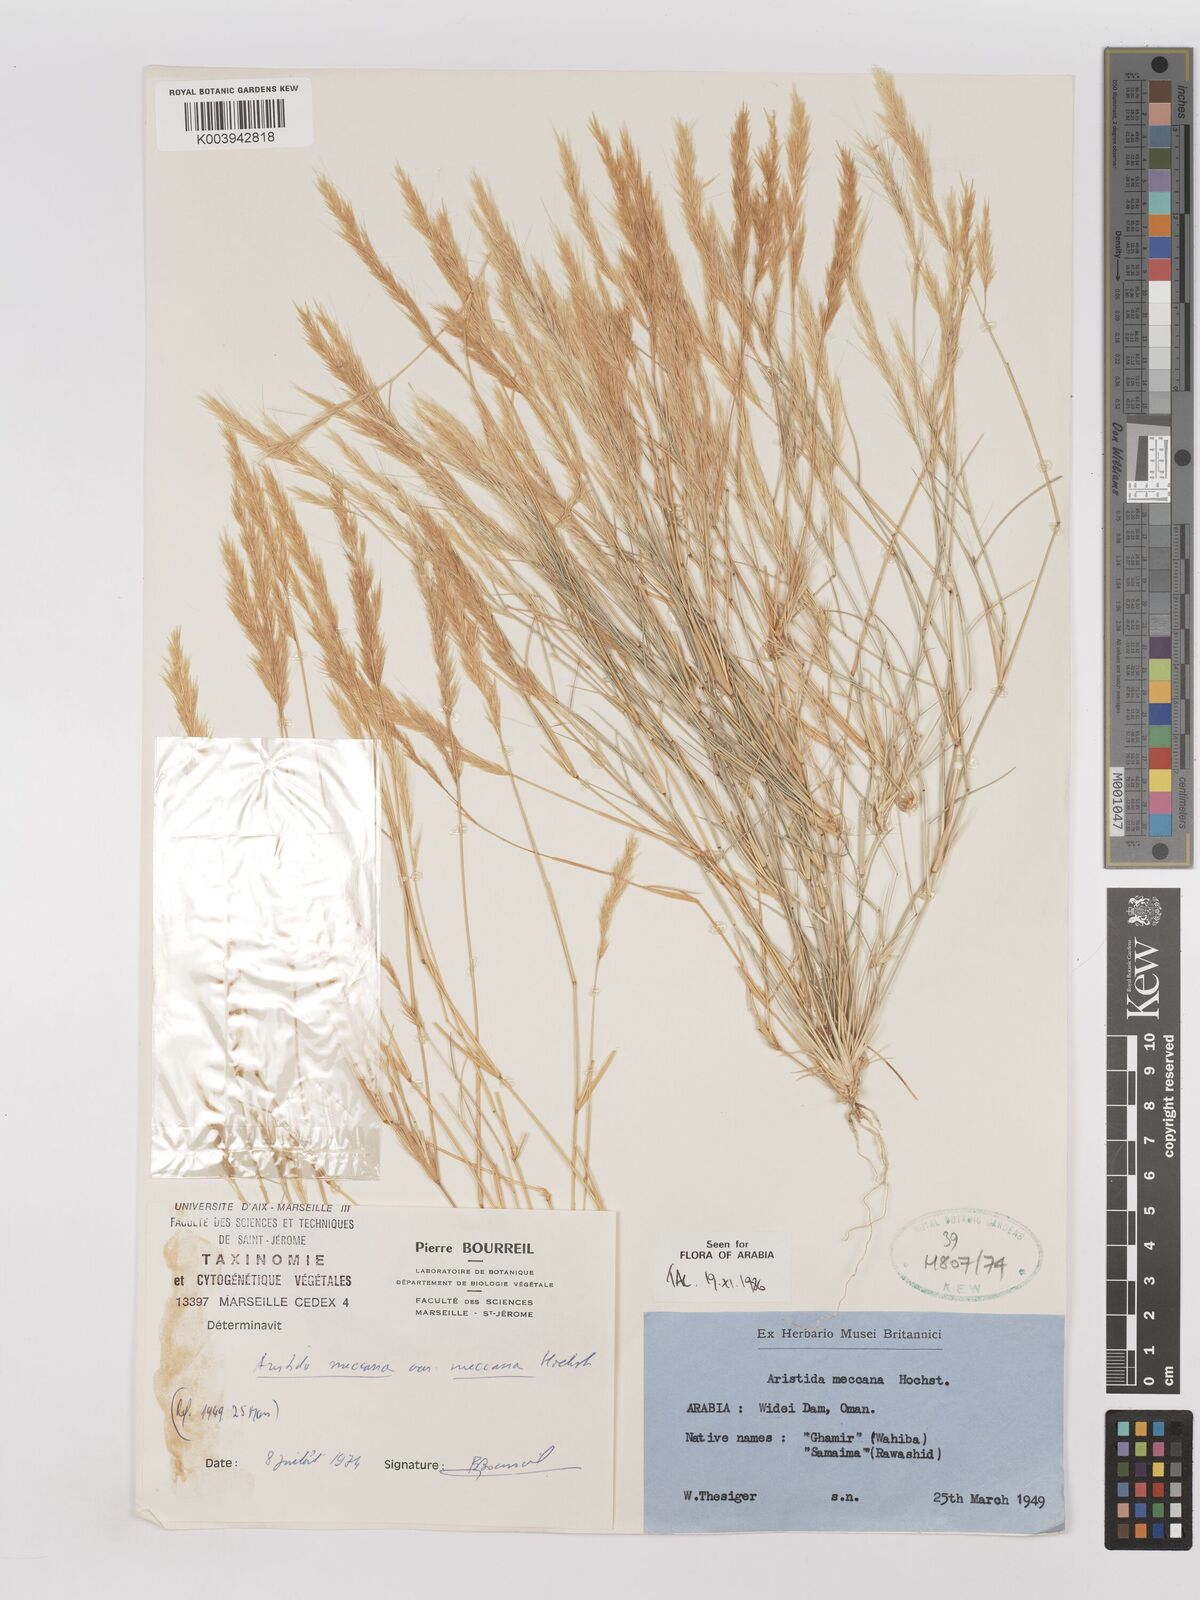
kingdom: Plantae
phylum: Tracheophyta
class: Liliopsida
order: Poales
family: Poaceae
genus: Aristida
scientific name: Aristida mutabilis
